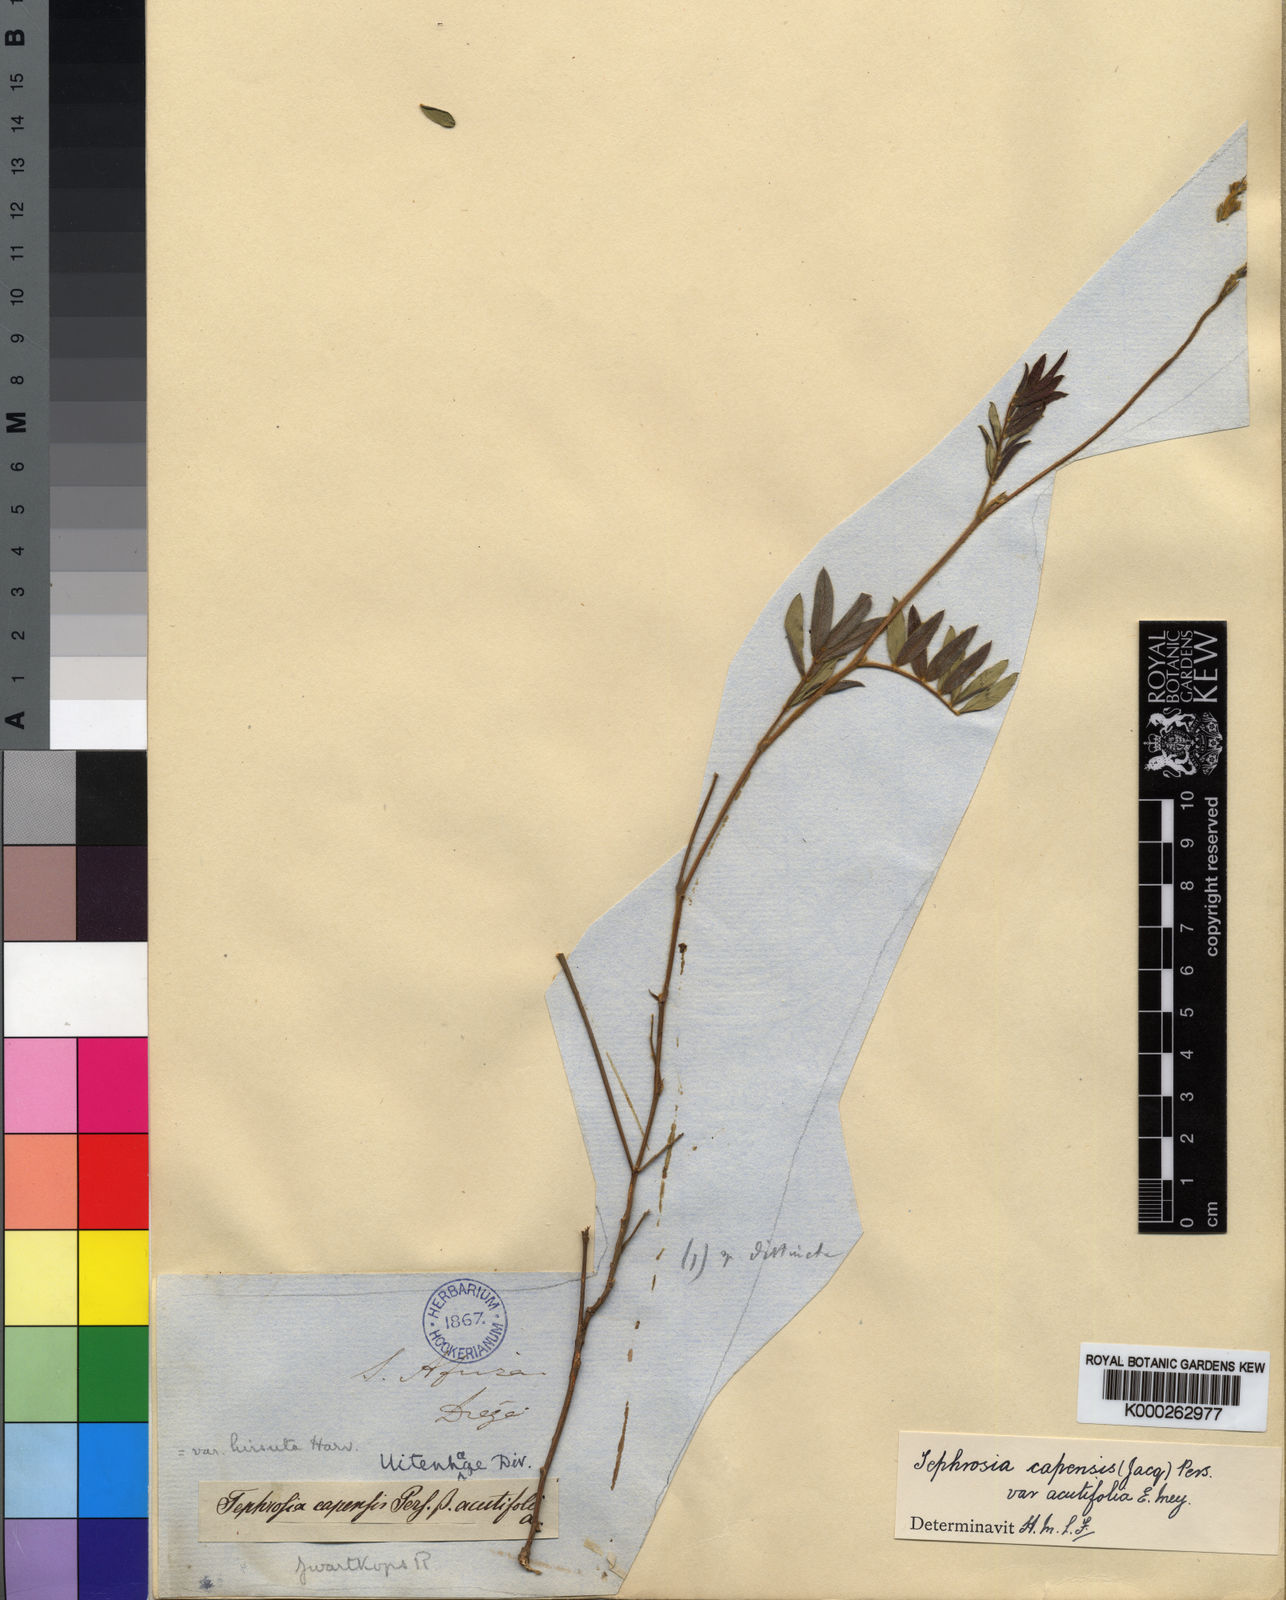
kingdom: Plantae
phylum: Tracheophyta
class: Magnoliopsida
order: Fabales
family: Fabaceae
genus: Tephrosia
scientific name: Tephrosia capensis
